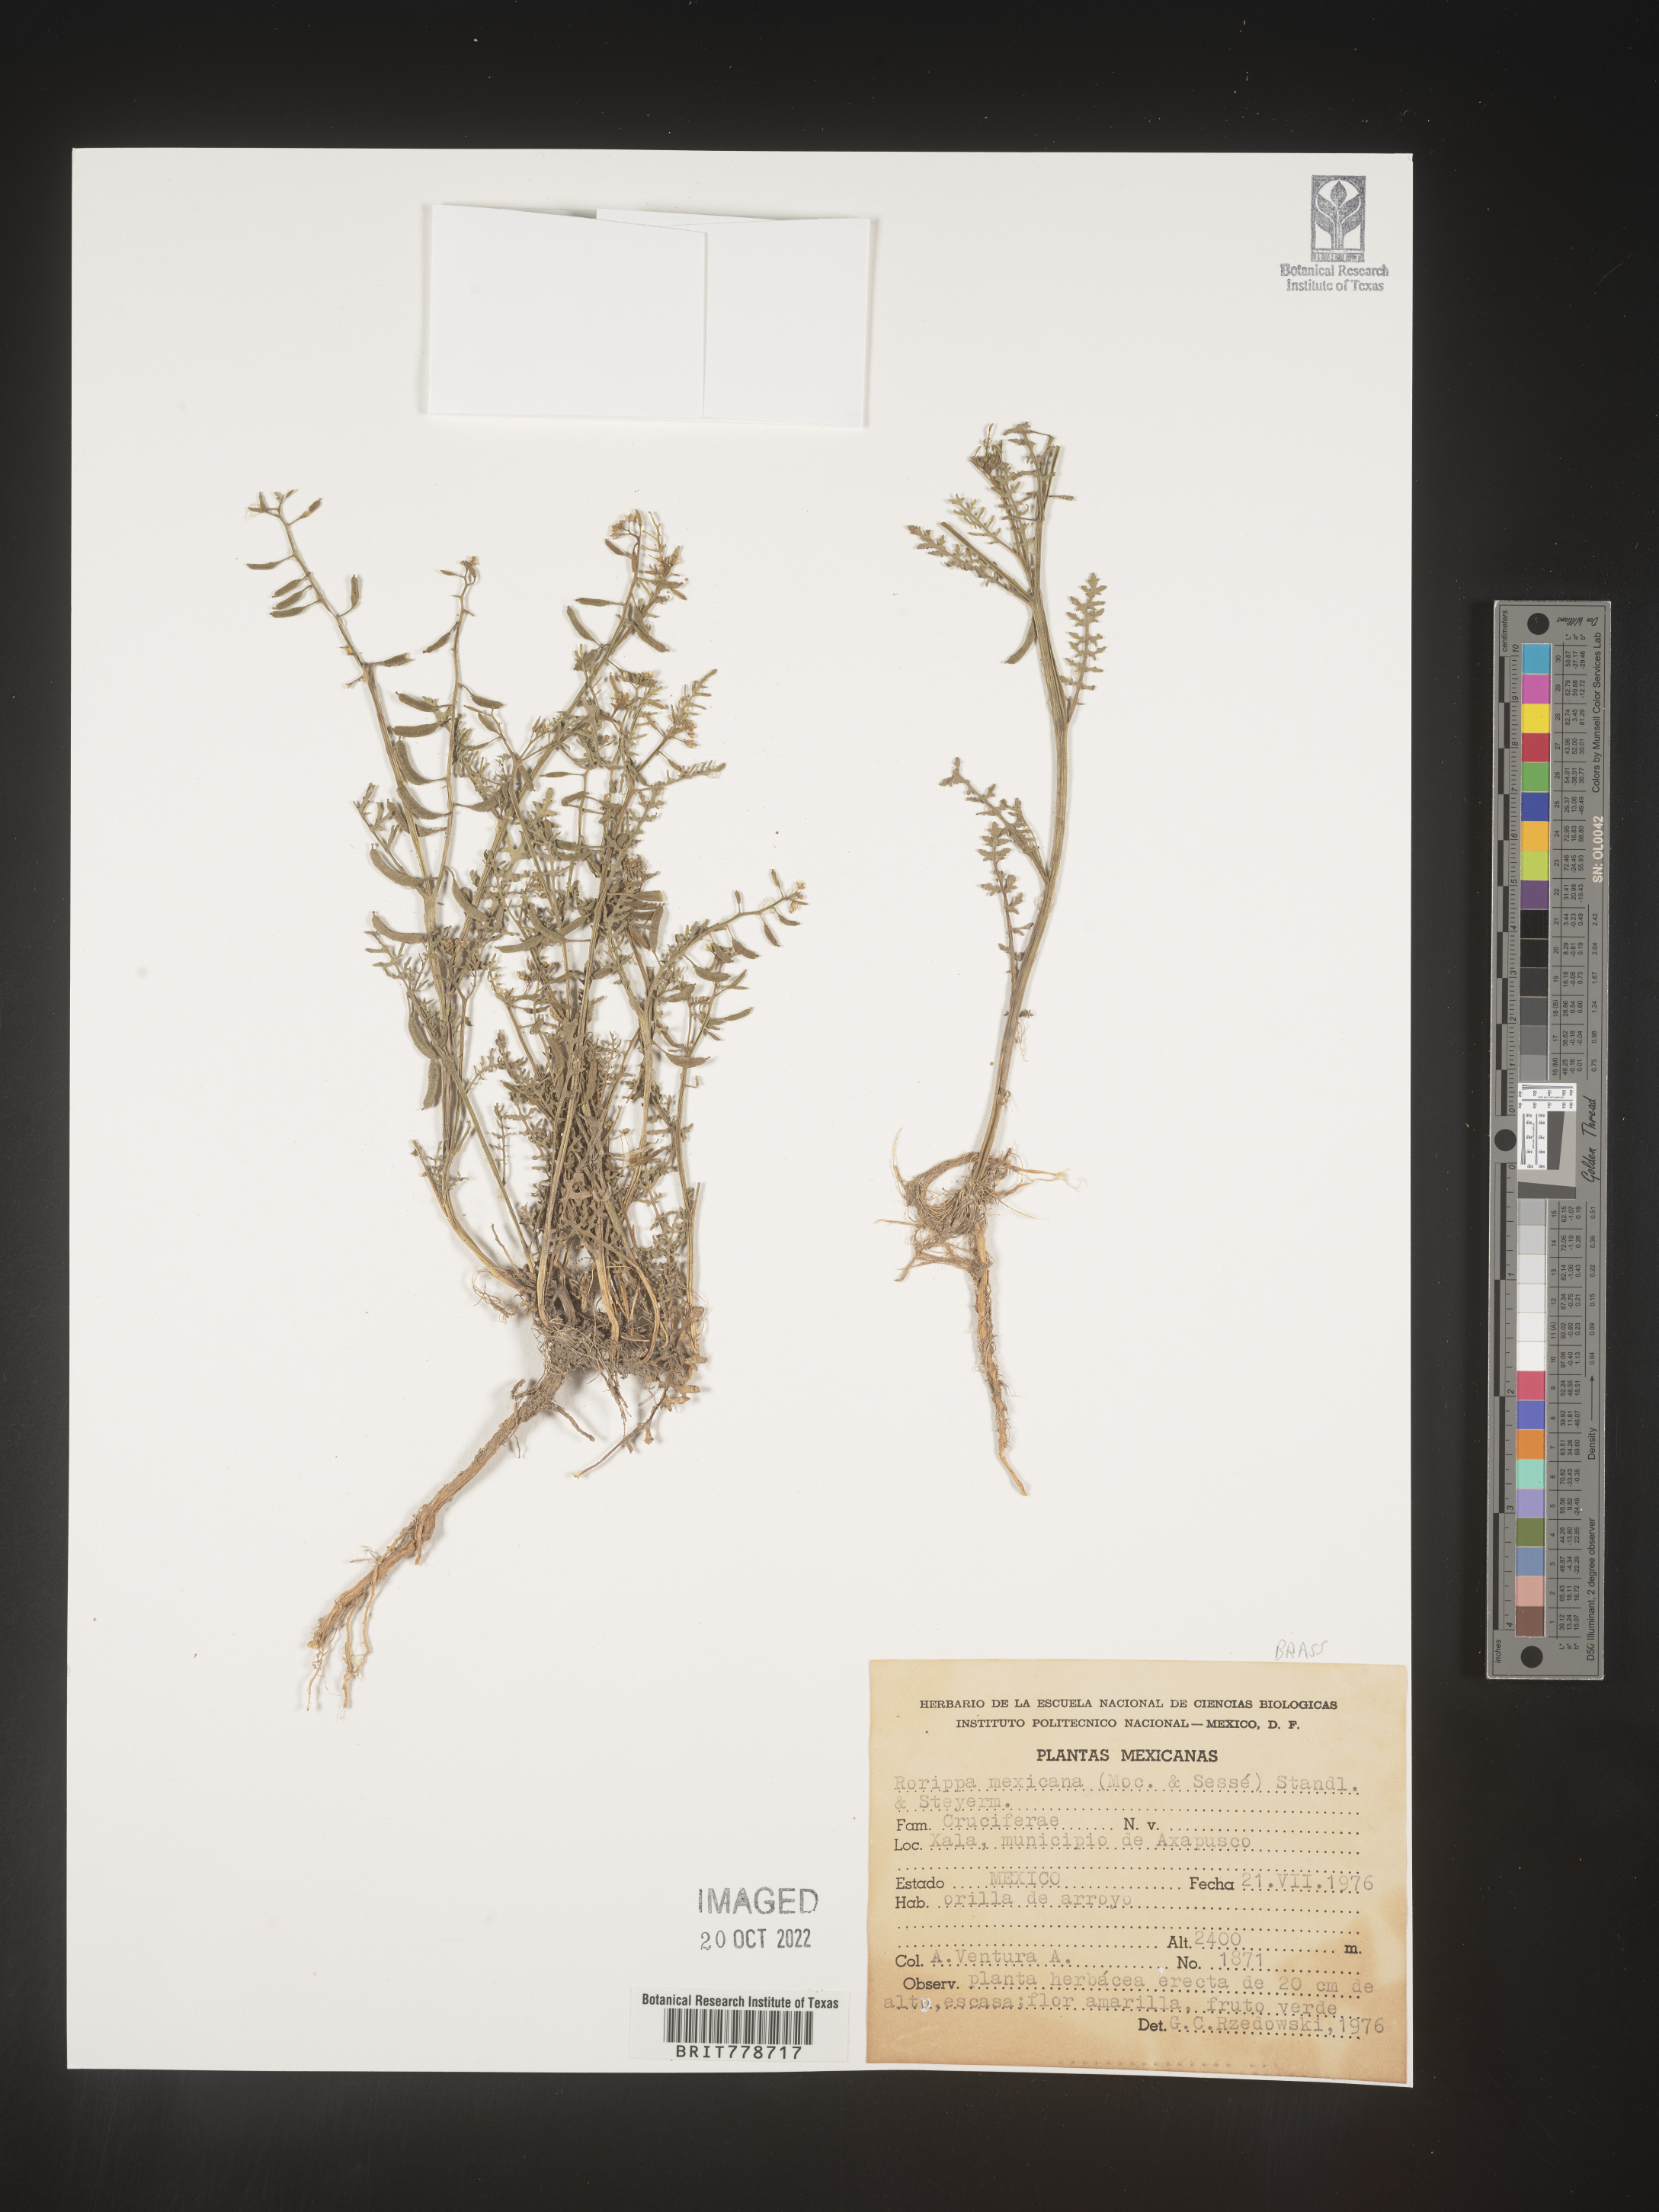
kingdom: Plantae
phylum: Tracheophyta
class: Magnoliopsida
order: Brassicales
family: Brassicaceae
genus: Rorippa
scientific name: Rorippa
